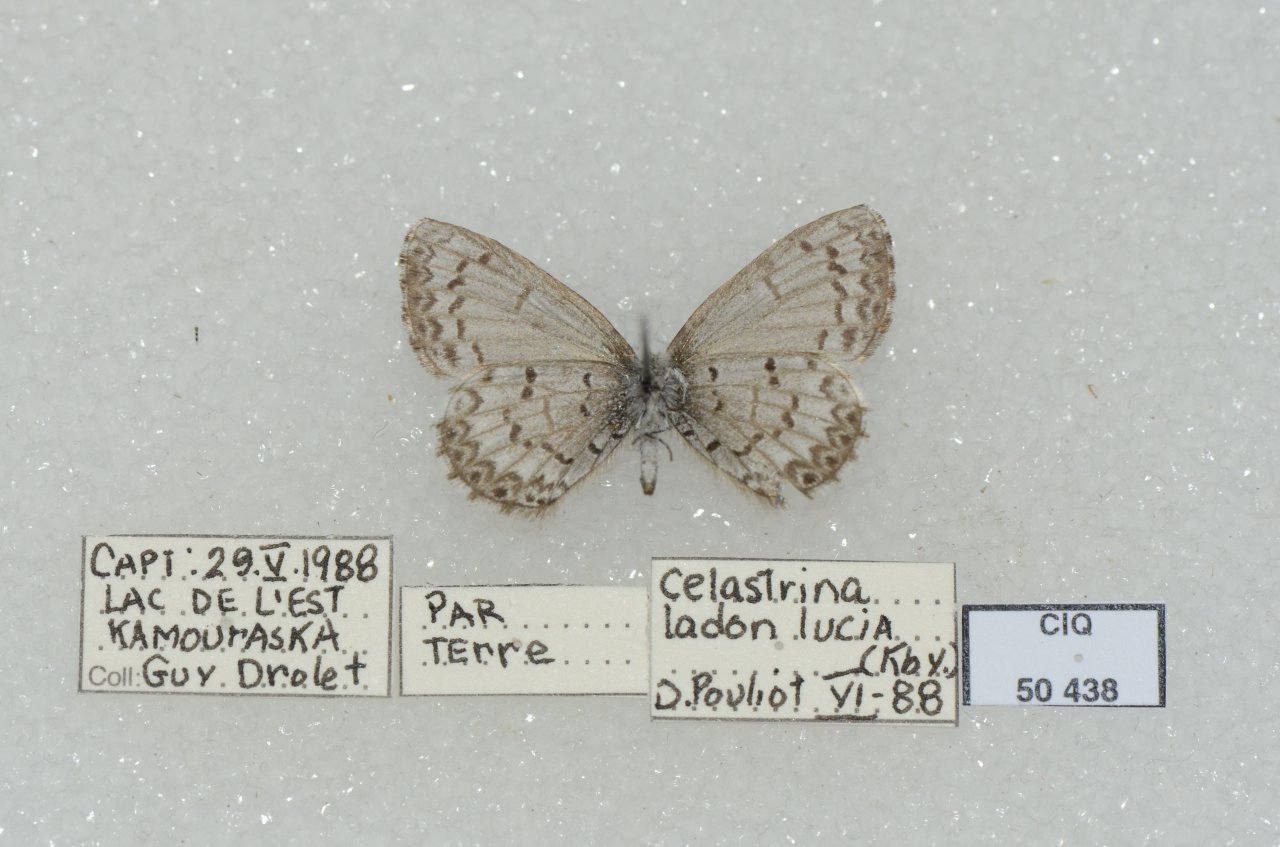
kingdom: Animalia
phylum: Arthropoda
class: Insecta
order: Lepidoptera
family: Lycaenidae
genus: Celastrina
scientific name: Celastrina lucia
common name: Northern Spring Azure
